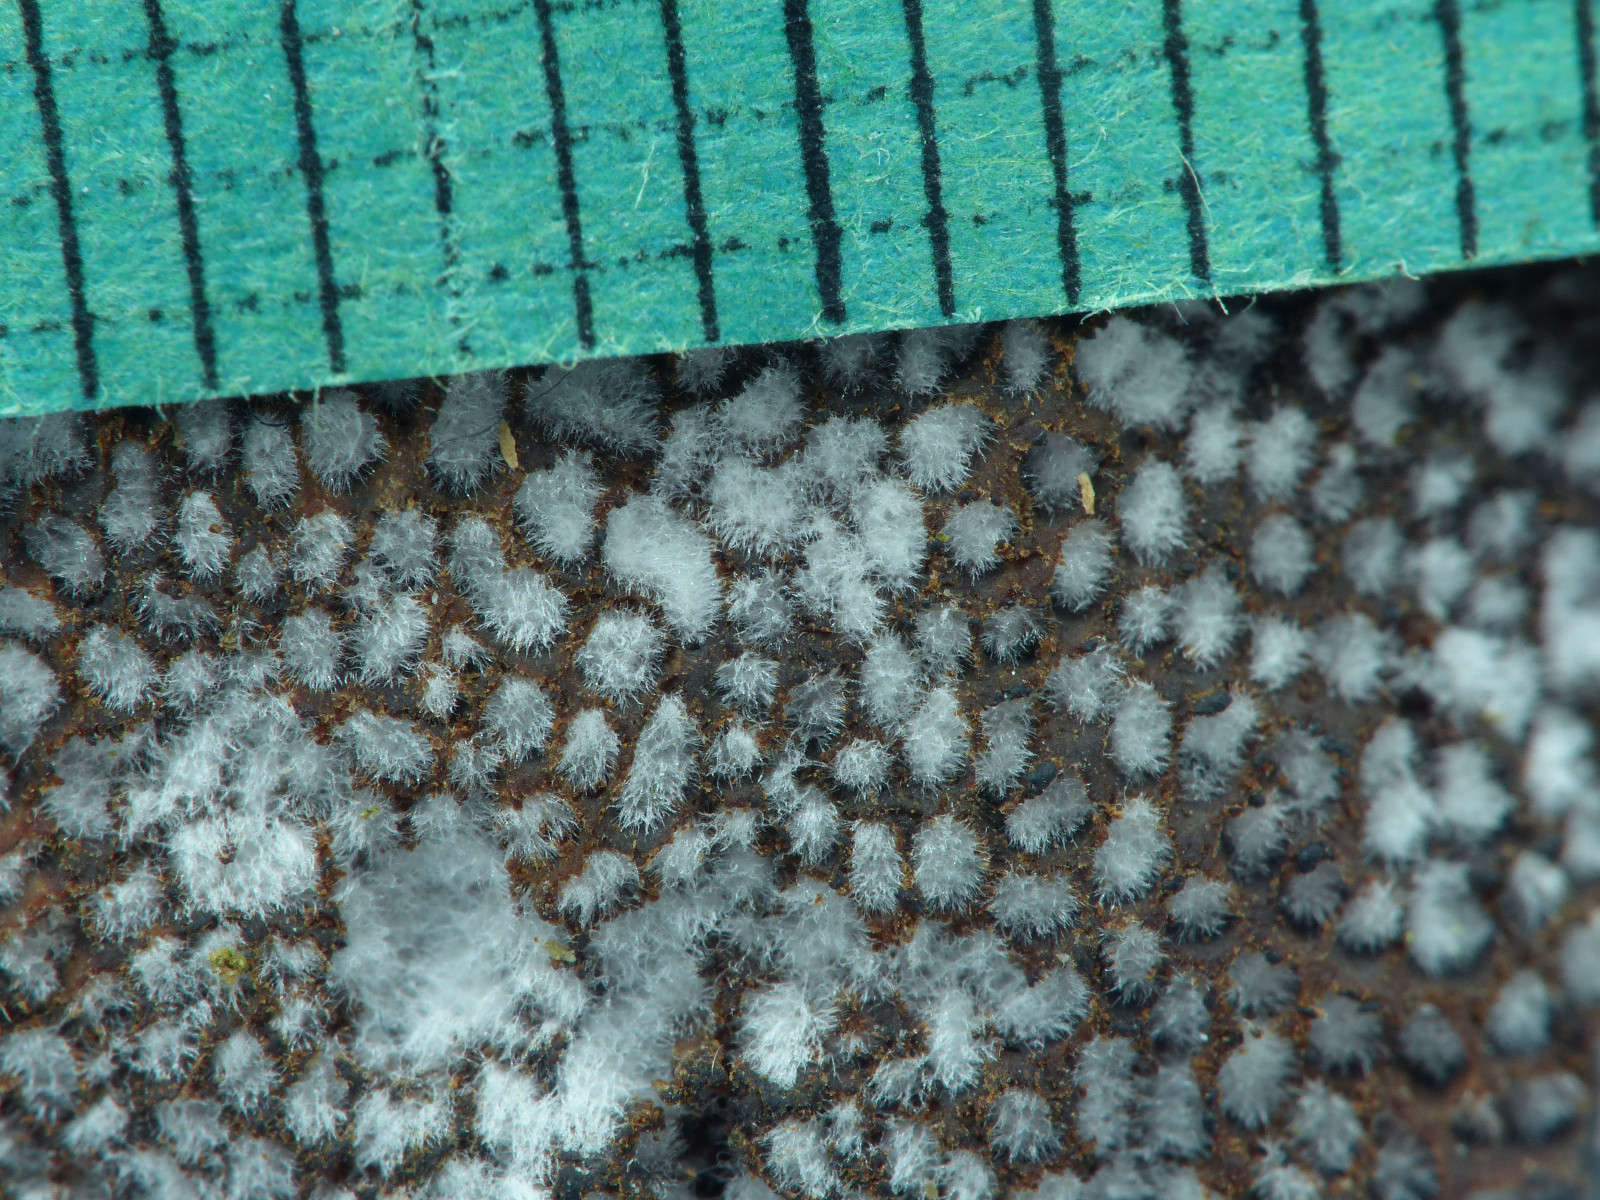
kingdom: Fungi
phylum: Basidiomycota
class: Agaricomycetes
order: Polyporales
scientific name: Polyporales
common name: poresvampordenen
